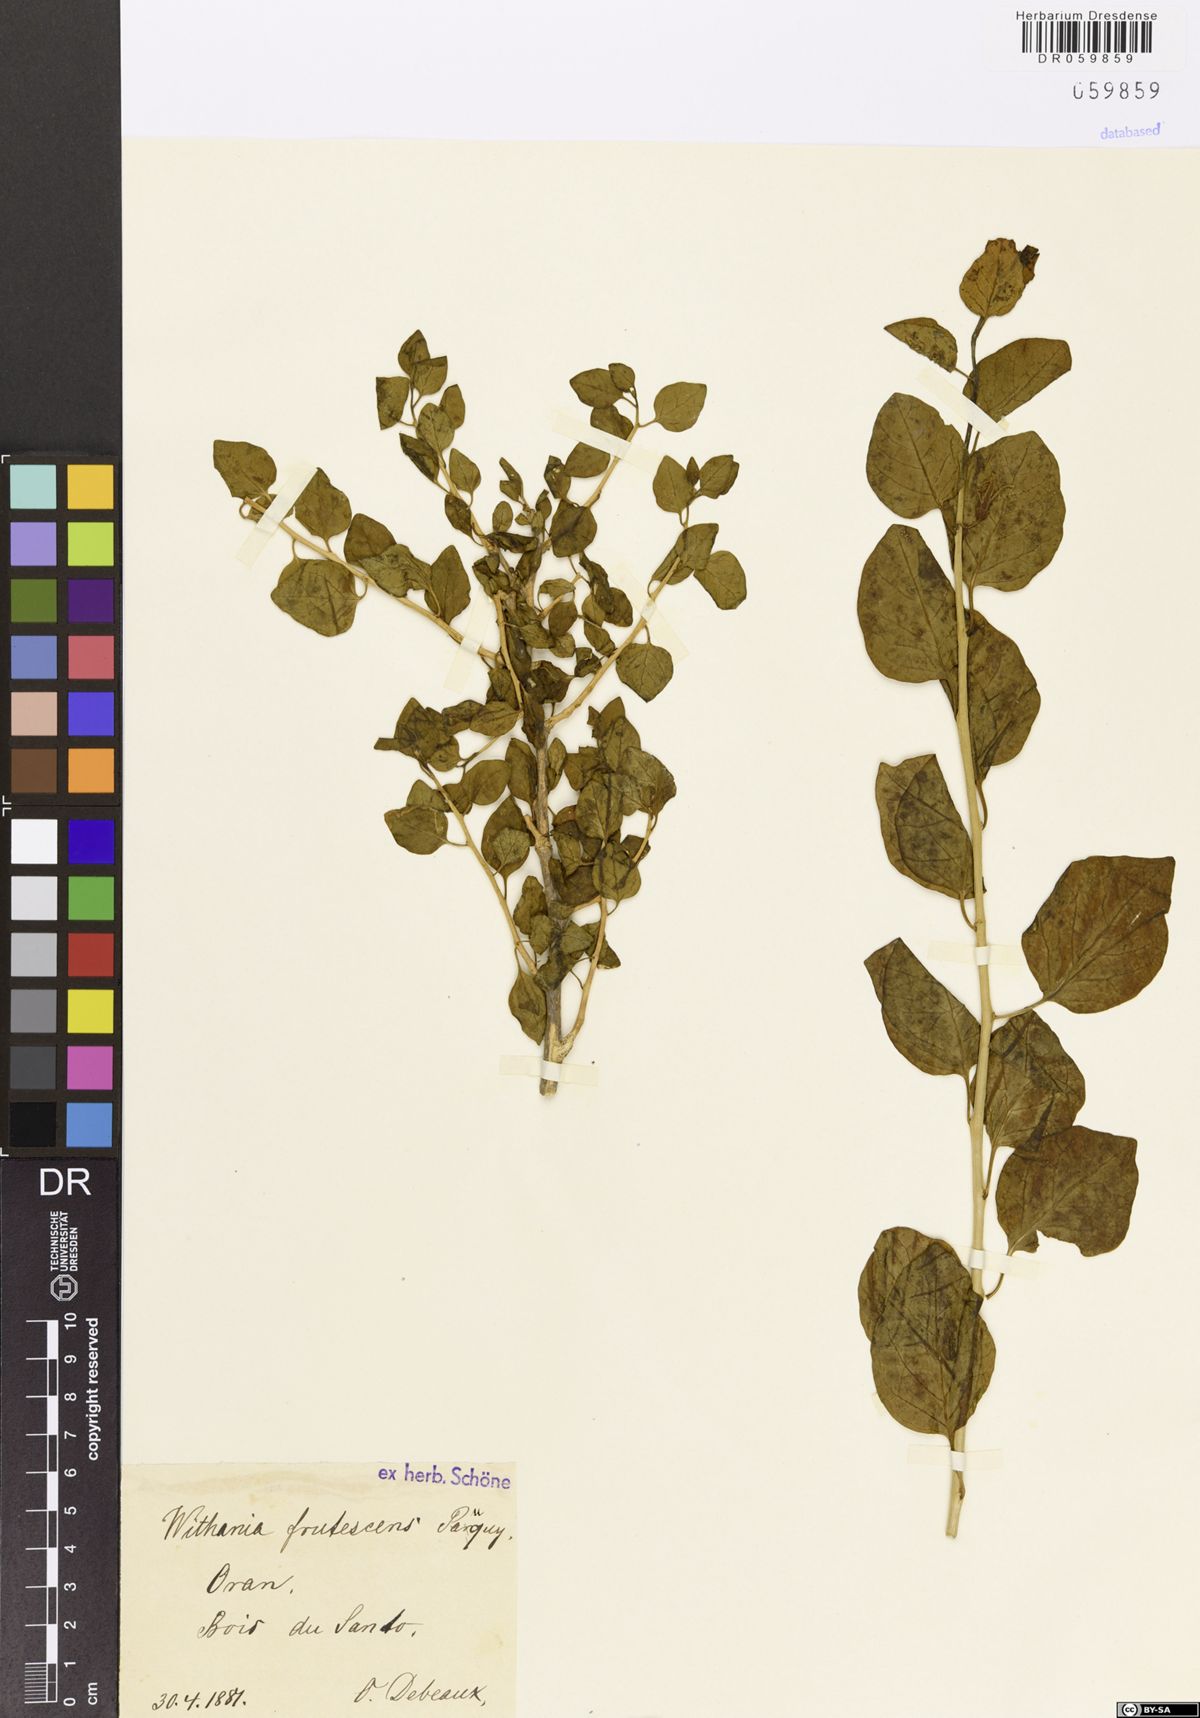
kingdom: Plantae
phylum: Tracheophyta
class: Magnoliopsida
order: Solanales
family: Solanaceae
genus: Withania
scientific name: Withania frutescens
